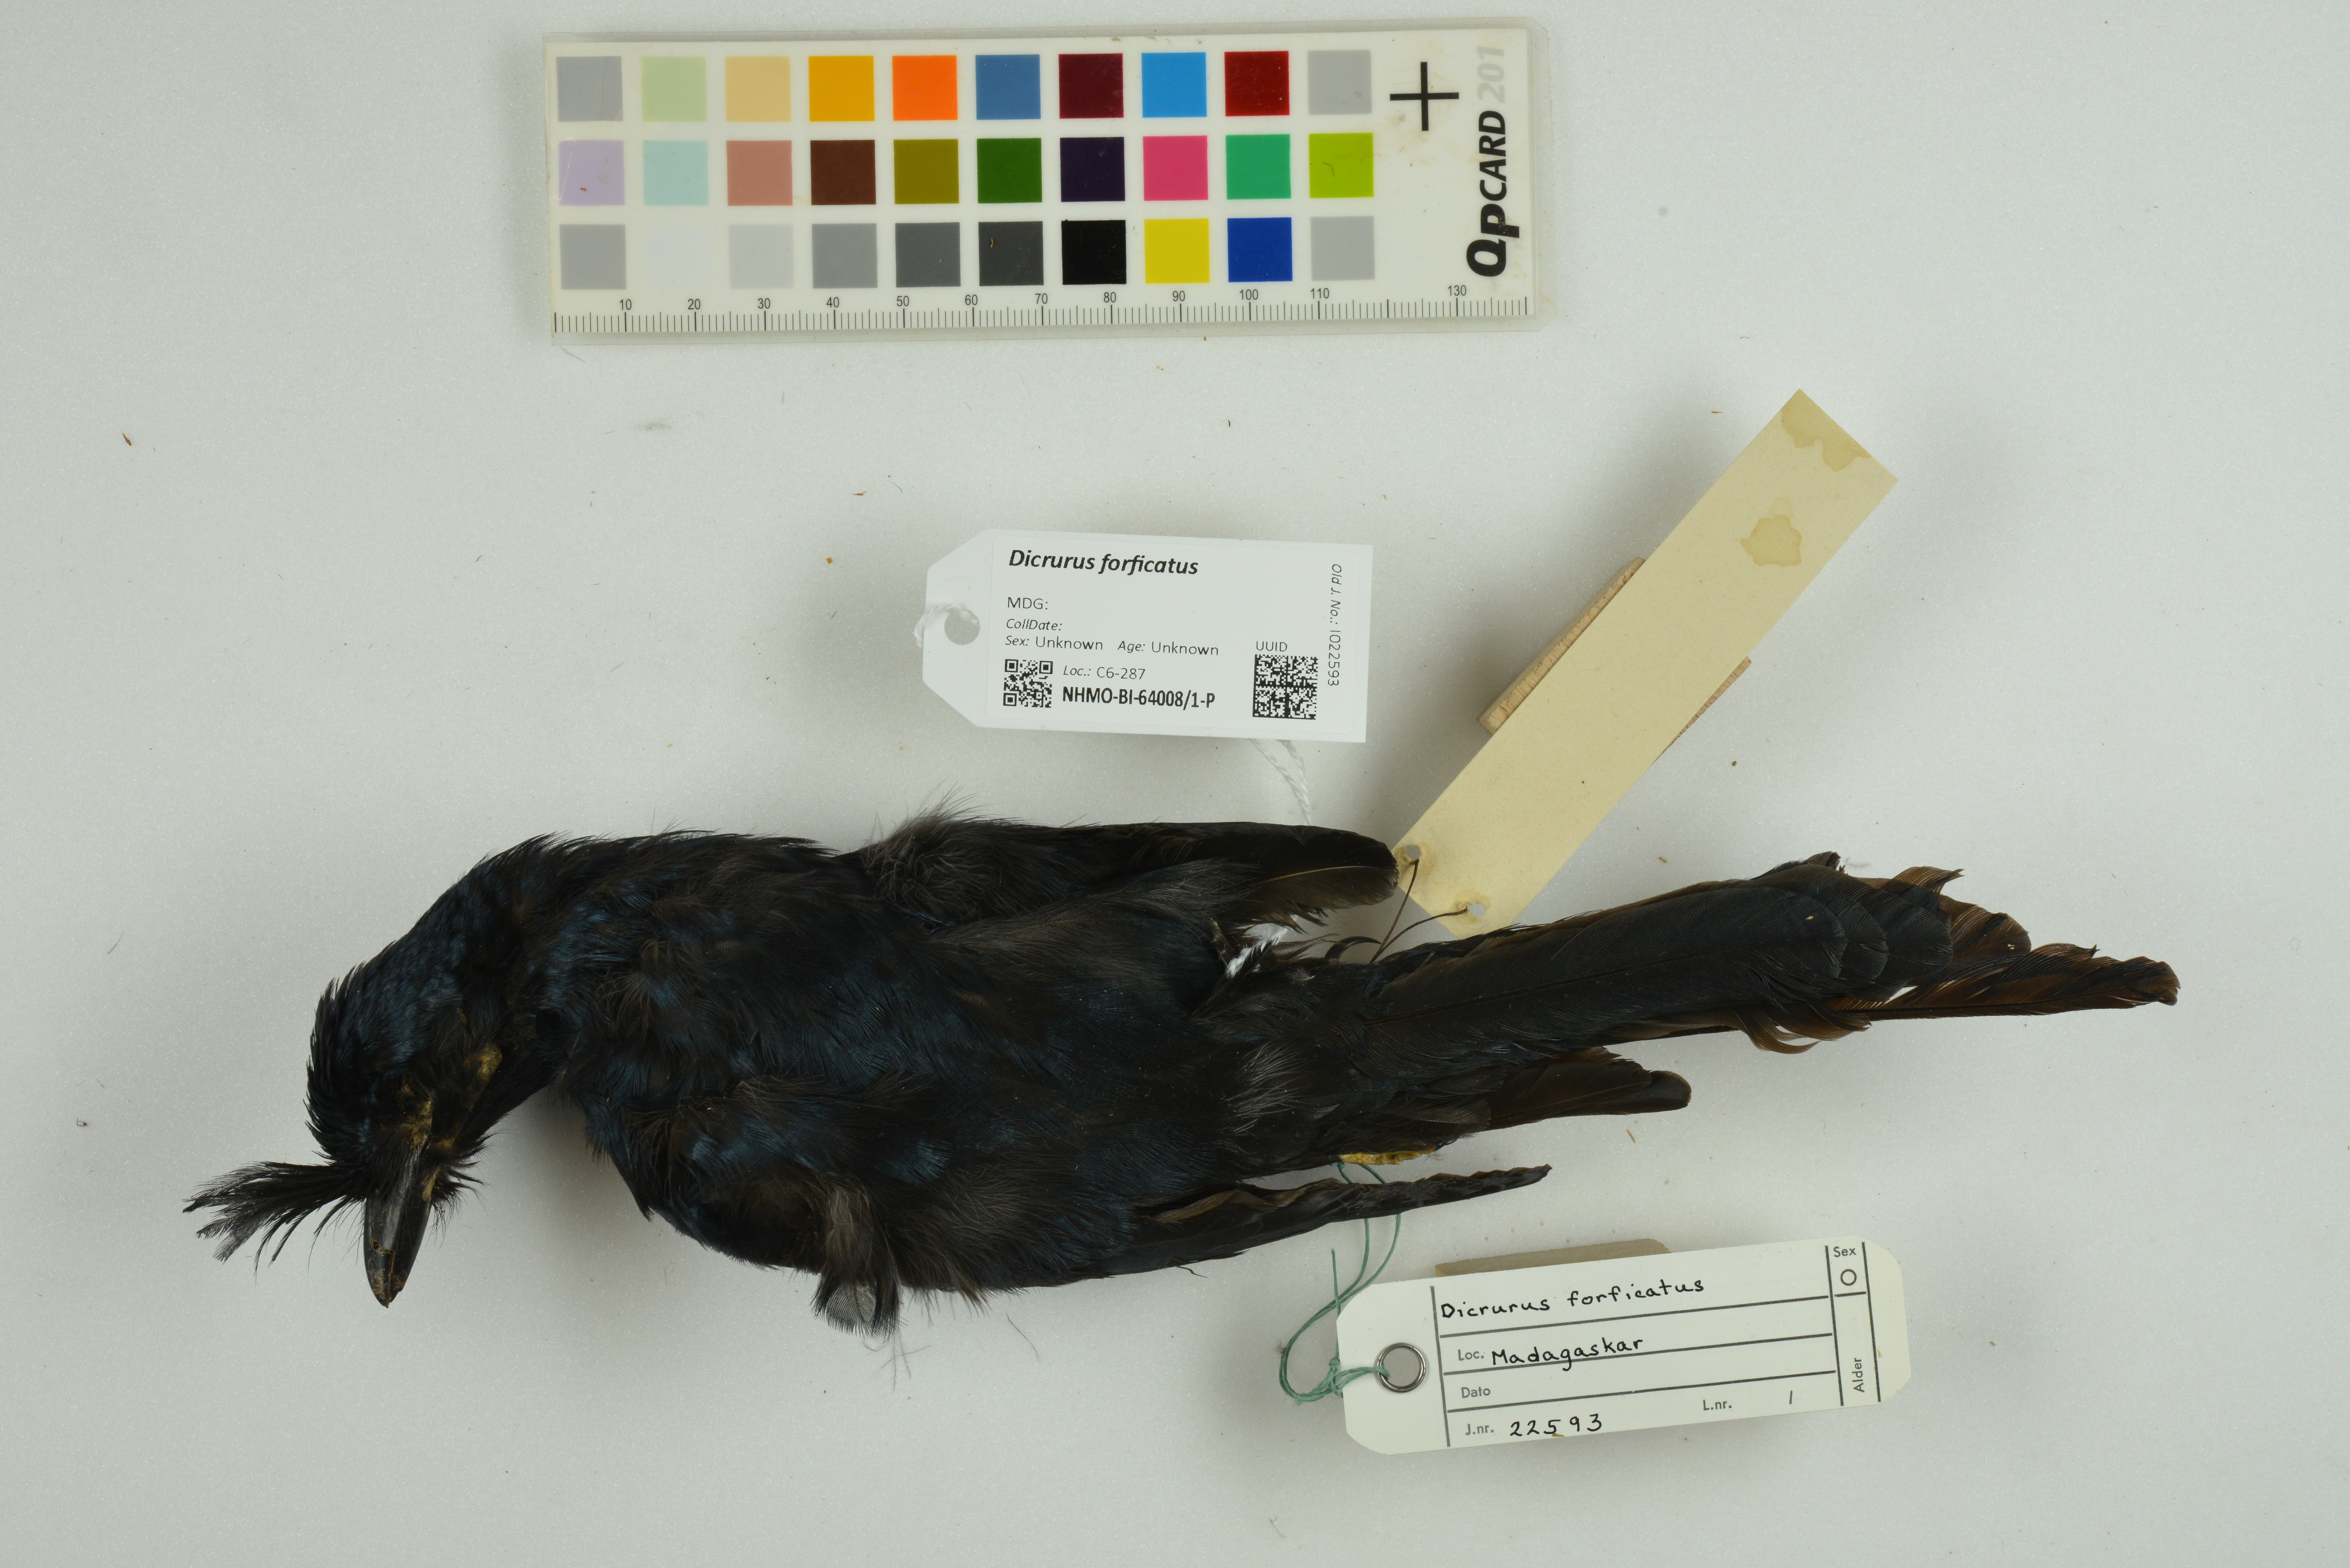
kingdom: Animalia
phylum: Chordata
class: Aves
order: Passeriformes
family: Dicruridae
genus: Dicrurus
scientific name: Dicrurus forficatus
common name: Crested drongo
